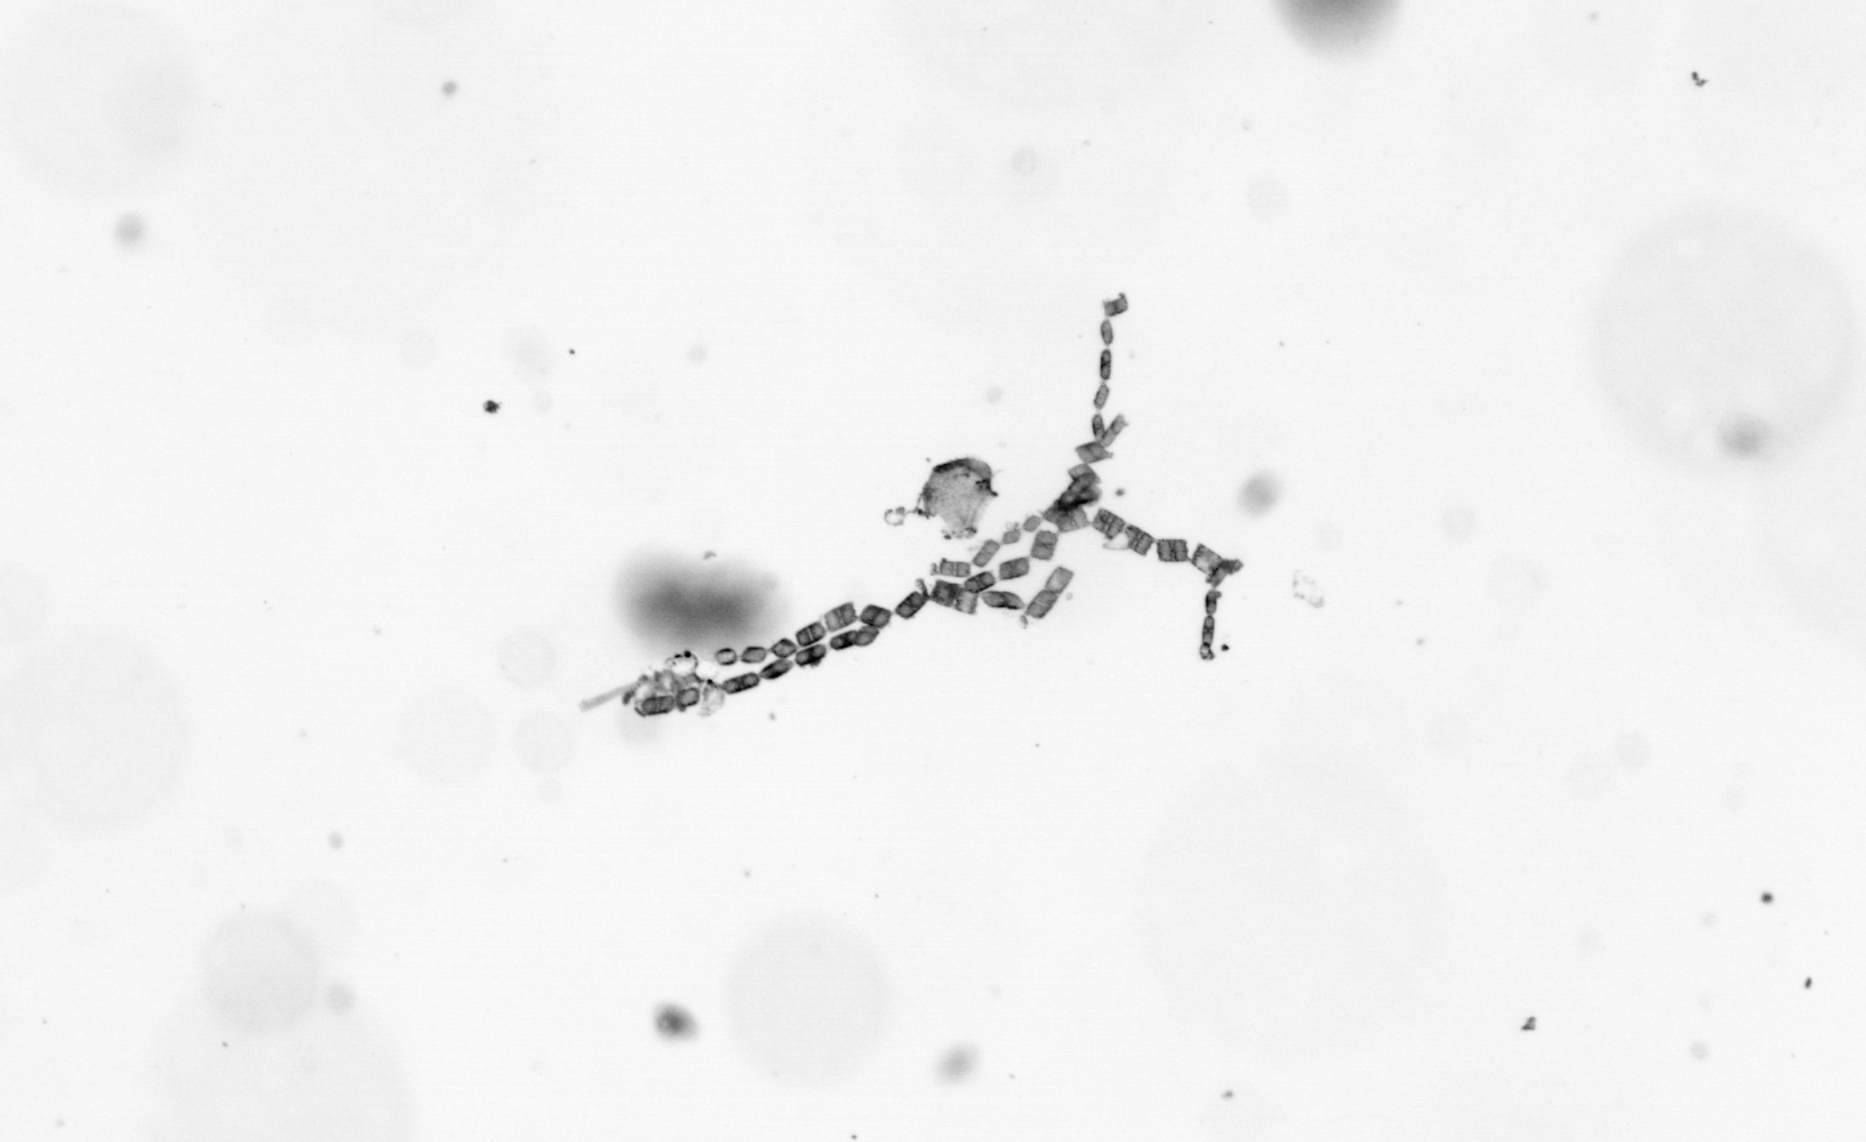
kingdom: Chromista
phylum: Ochrophyta
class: Bacillariophyceae
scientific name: Bacillariophyceae
